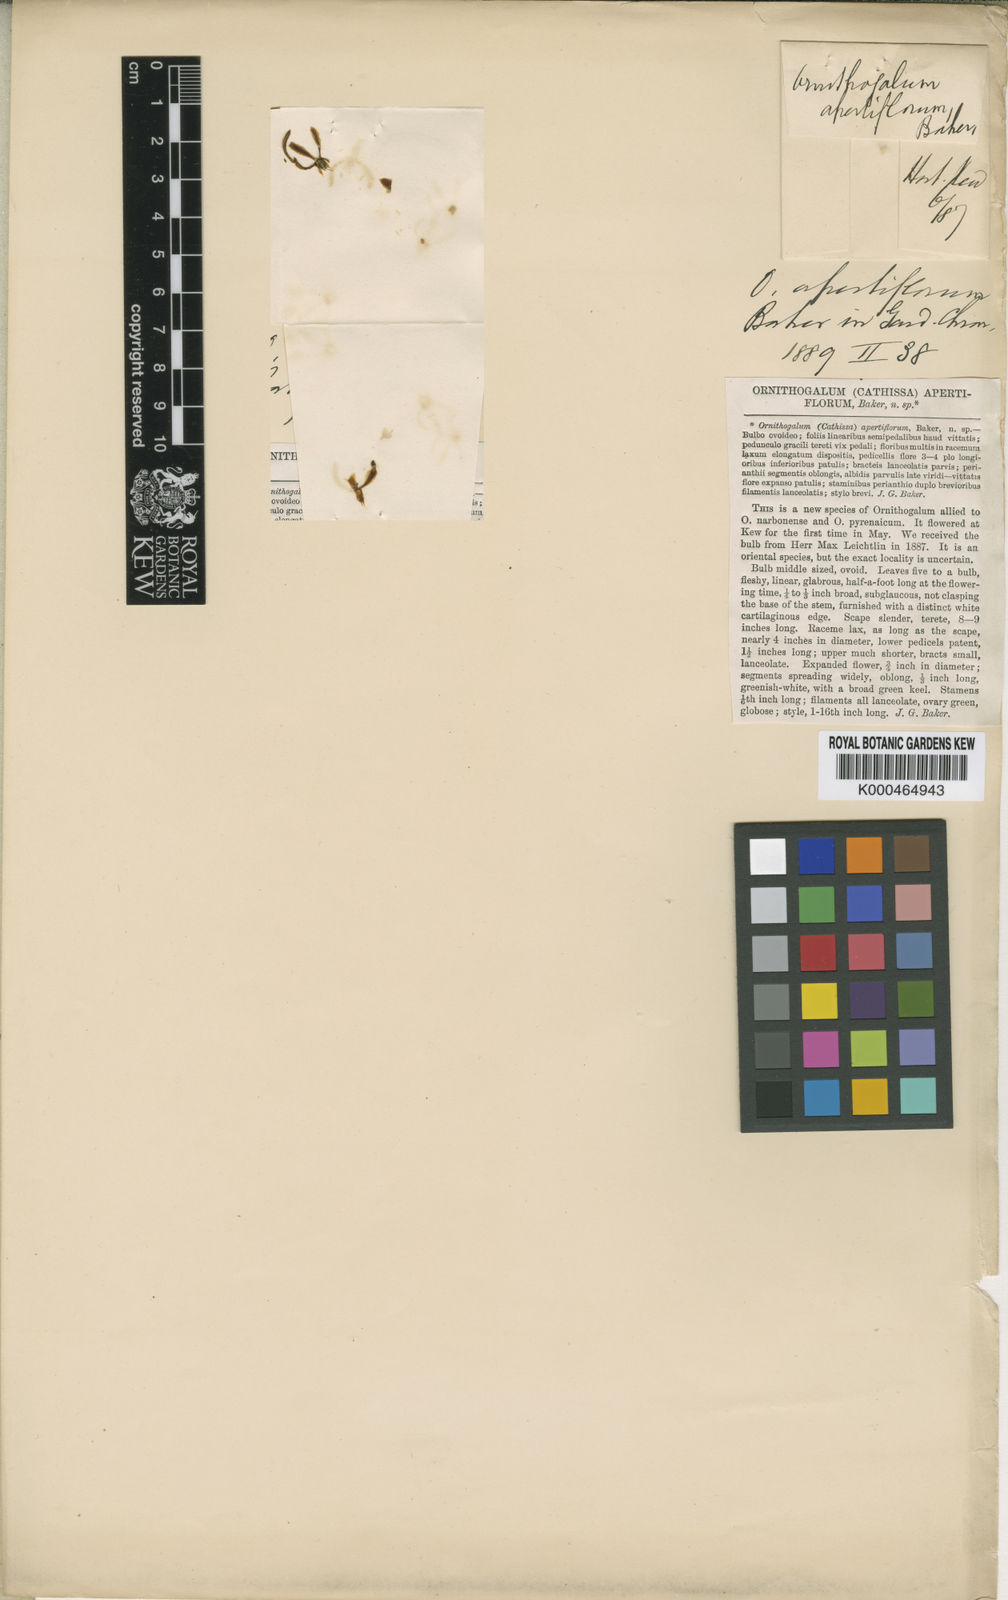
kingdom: Plantae
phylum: Tracheophyta
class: Liliopsida
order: Asparagales
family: Asparagaceae
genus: Ornithogalum
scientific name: Ornithogalum apertiflorum
